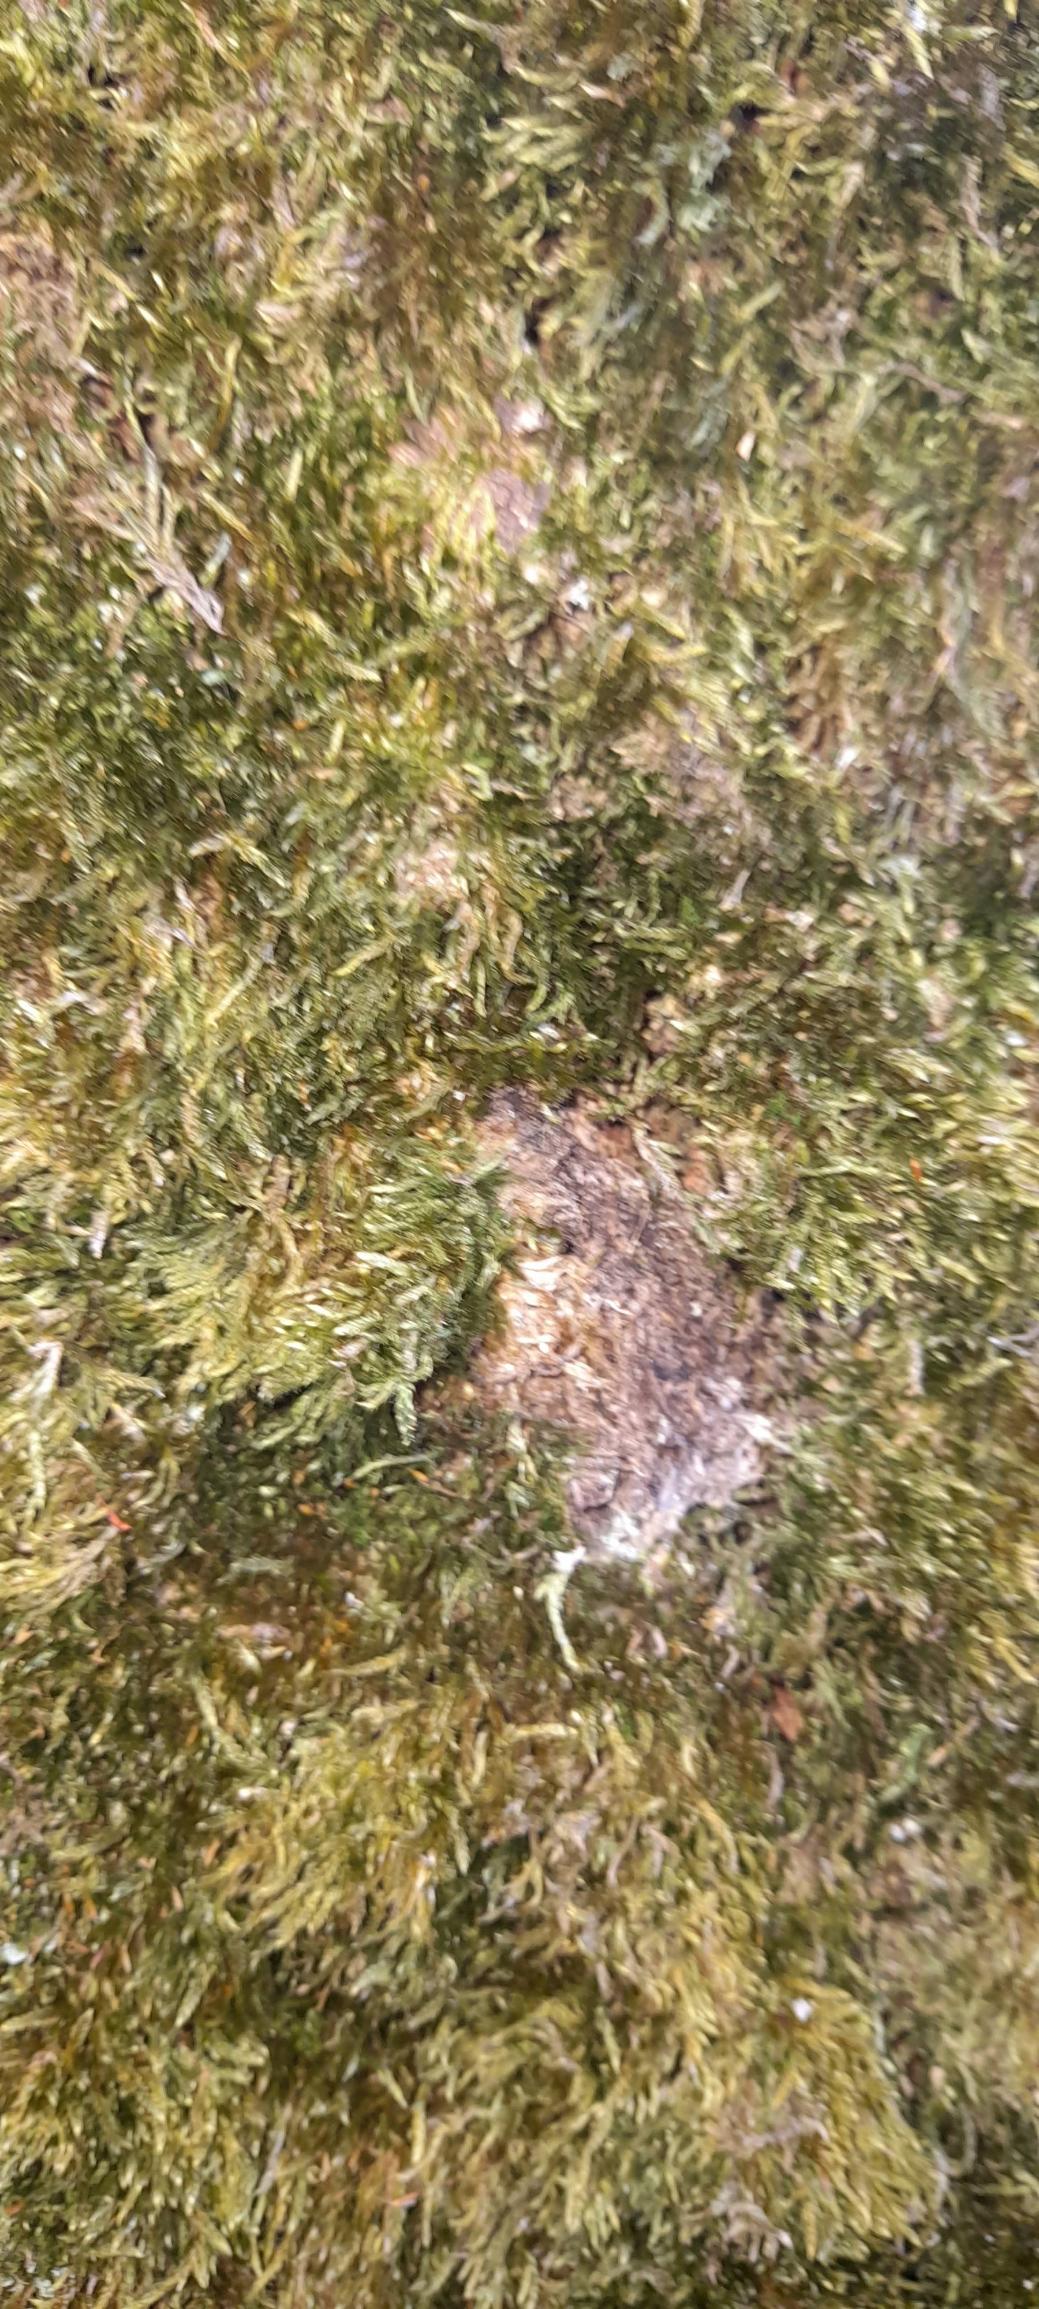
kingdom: Plantae
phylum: Bryophyta
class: Bryopsida
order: Hypnales
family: Hypnaceae
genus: Hypnum
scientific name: Hypnum cupressiforme
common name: Almindelig cypresmos
